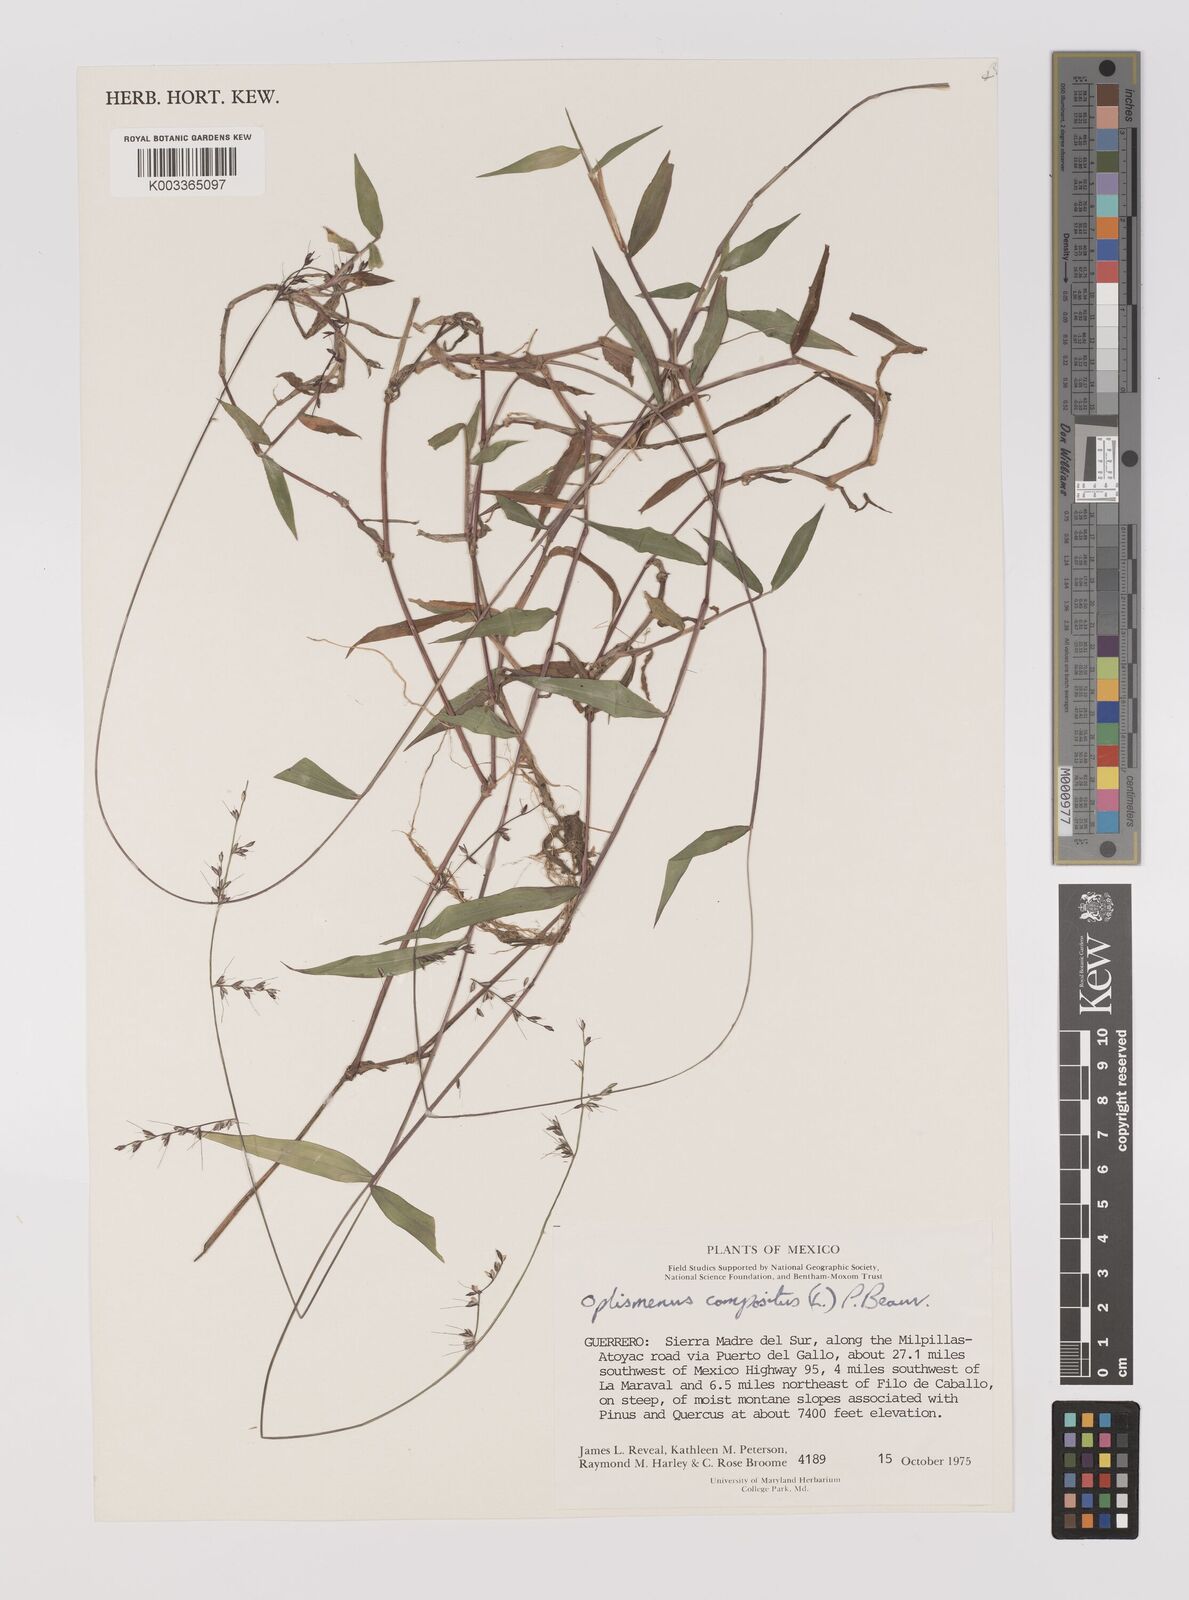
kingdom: Plantae
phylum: Tracheophyta
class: Liliopsida
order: Poales
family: Poaceae
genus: Oplismenus
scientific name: Oplismenus compositus
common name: Running mountain grass
